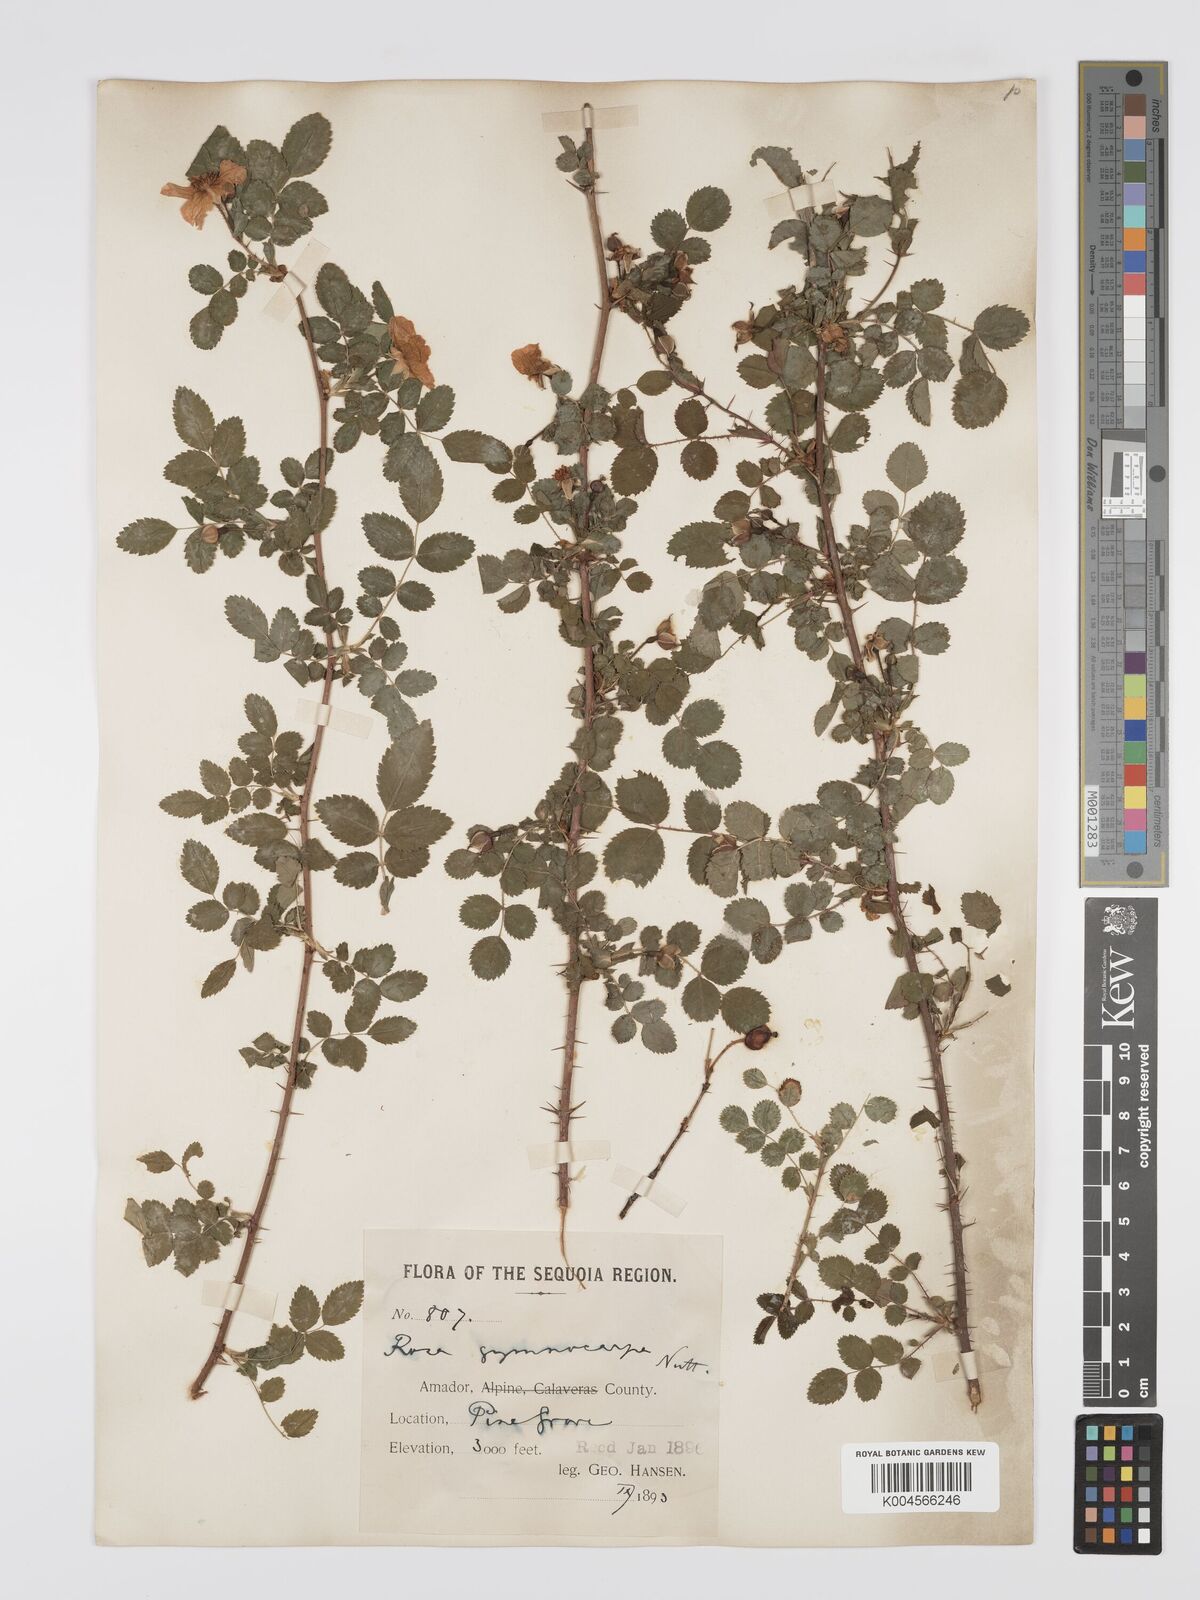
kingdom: Plantae
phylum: Tracheophyta
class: Magnoliopsida
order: Rosales
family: Rosaceae
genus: Rosa
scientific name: Rosa gymnocarpa
